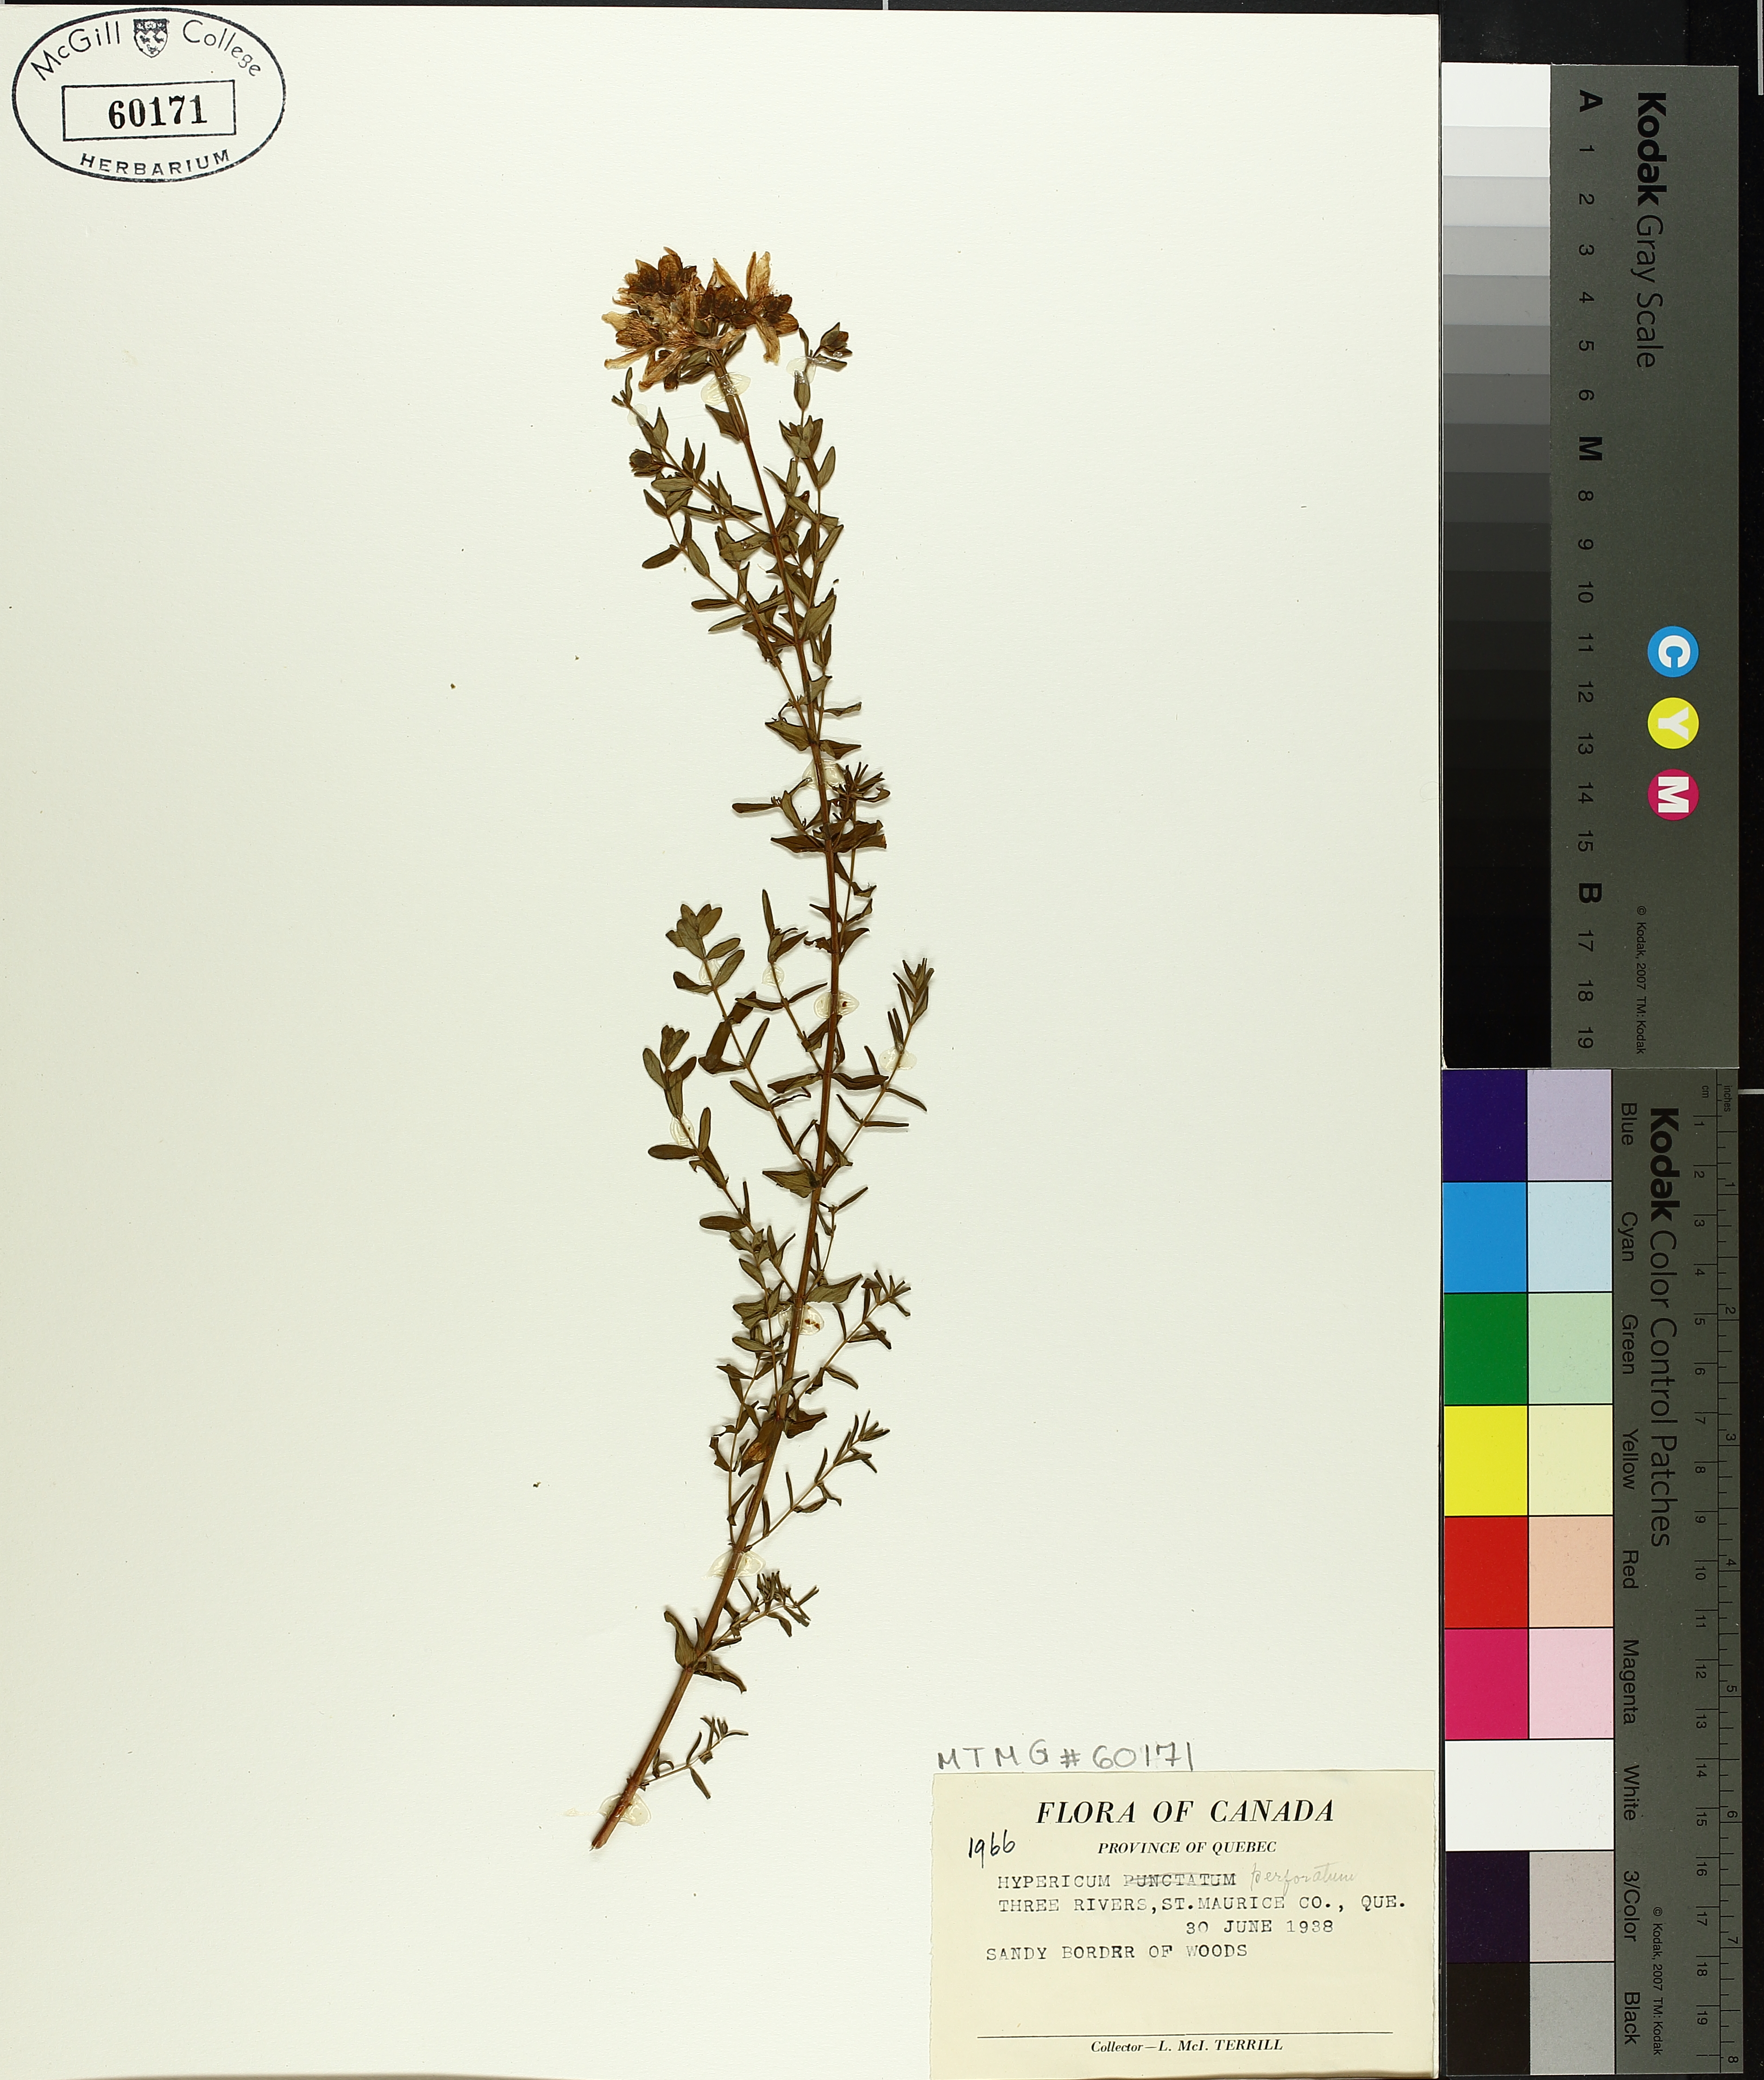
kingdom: Plantae
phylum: Tracheophyta
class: Magnoliopsida
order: Malpighiales
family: Hypericaceae
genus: Hypericum
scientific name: Hypericum perforatum
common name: Common st. johnswort
